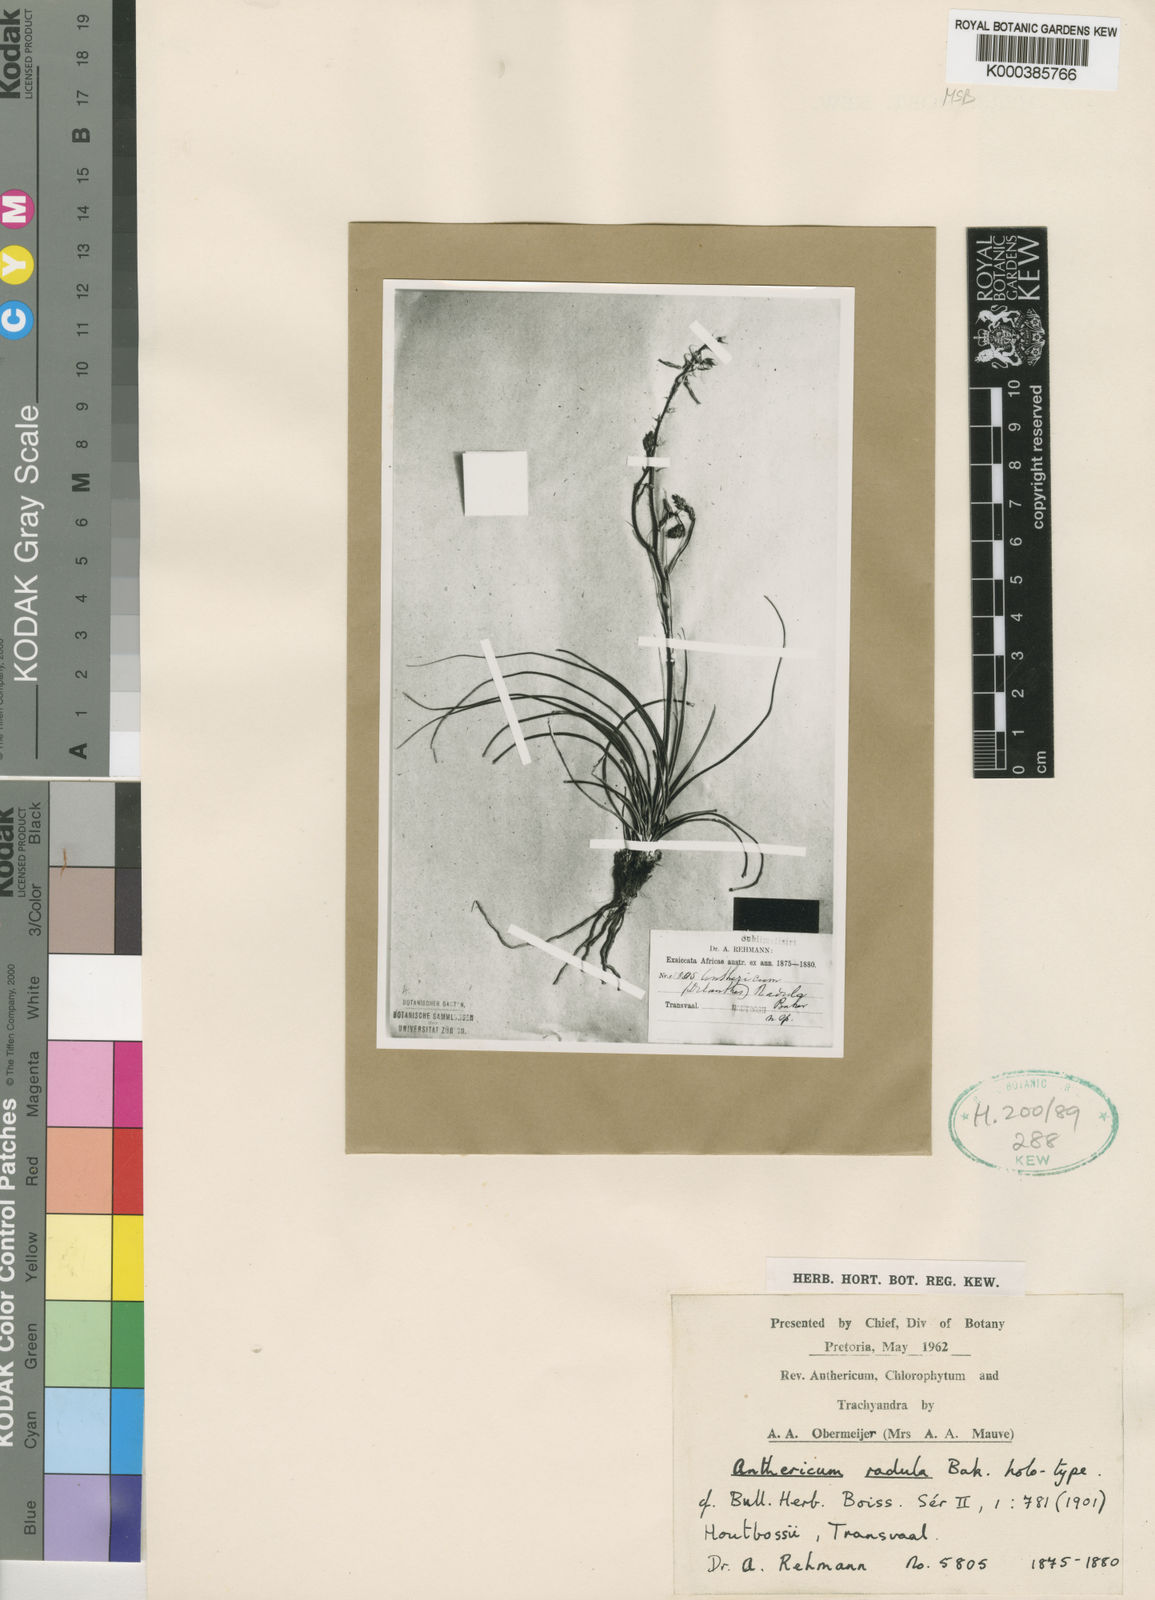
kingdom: Plantae
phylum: Tracheophyta
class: Liliopsida
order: Asparagales
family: Asparagaceae
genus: Chlorophytum
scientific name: Chlorophytum radula
